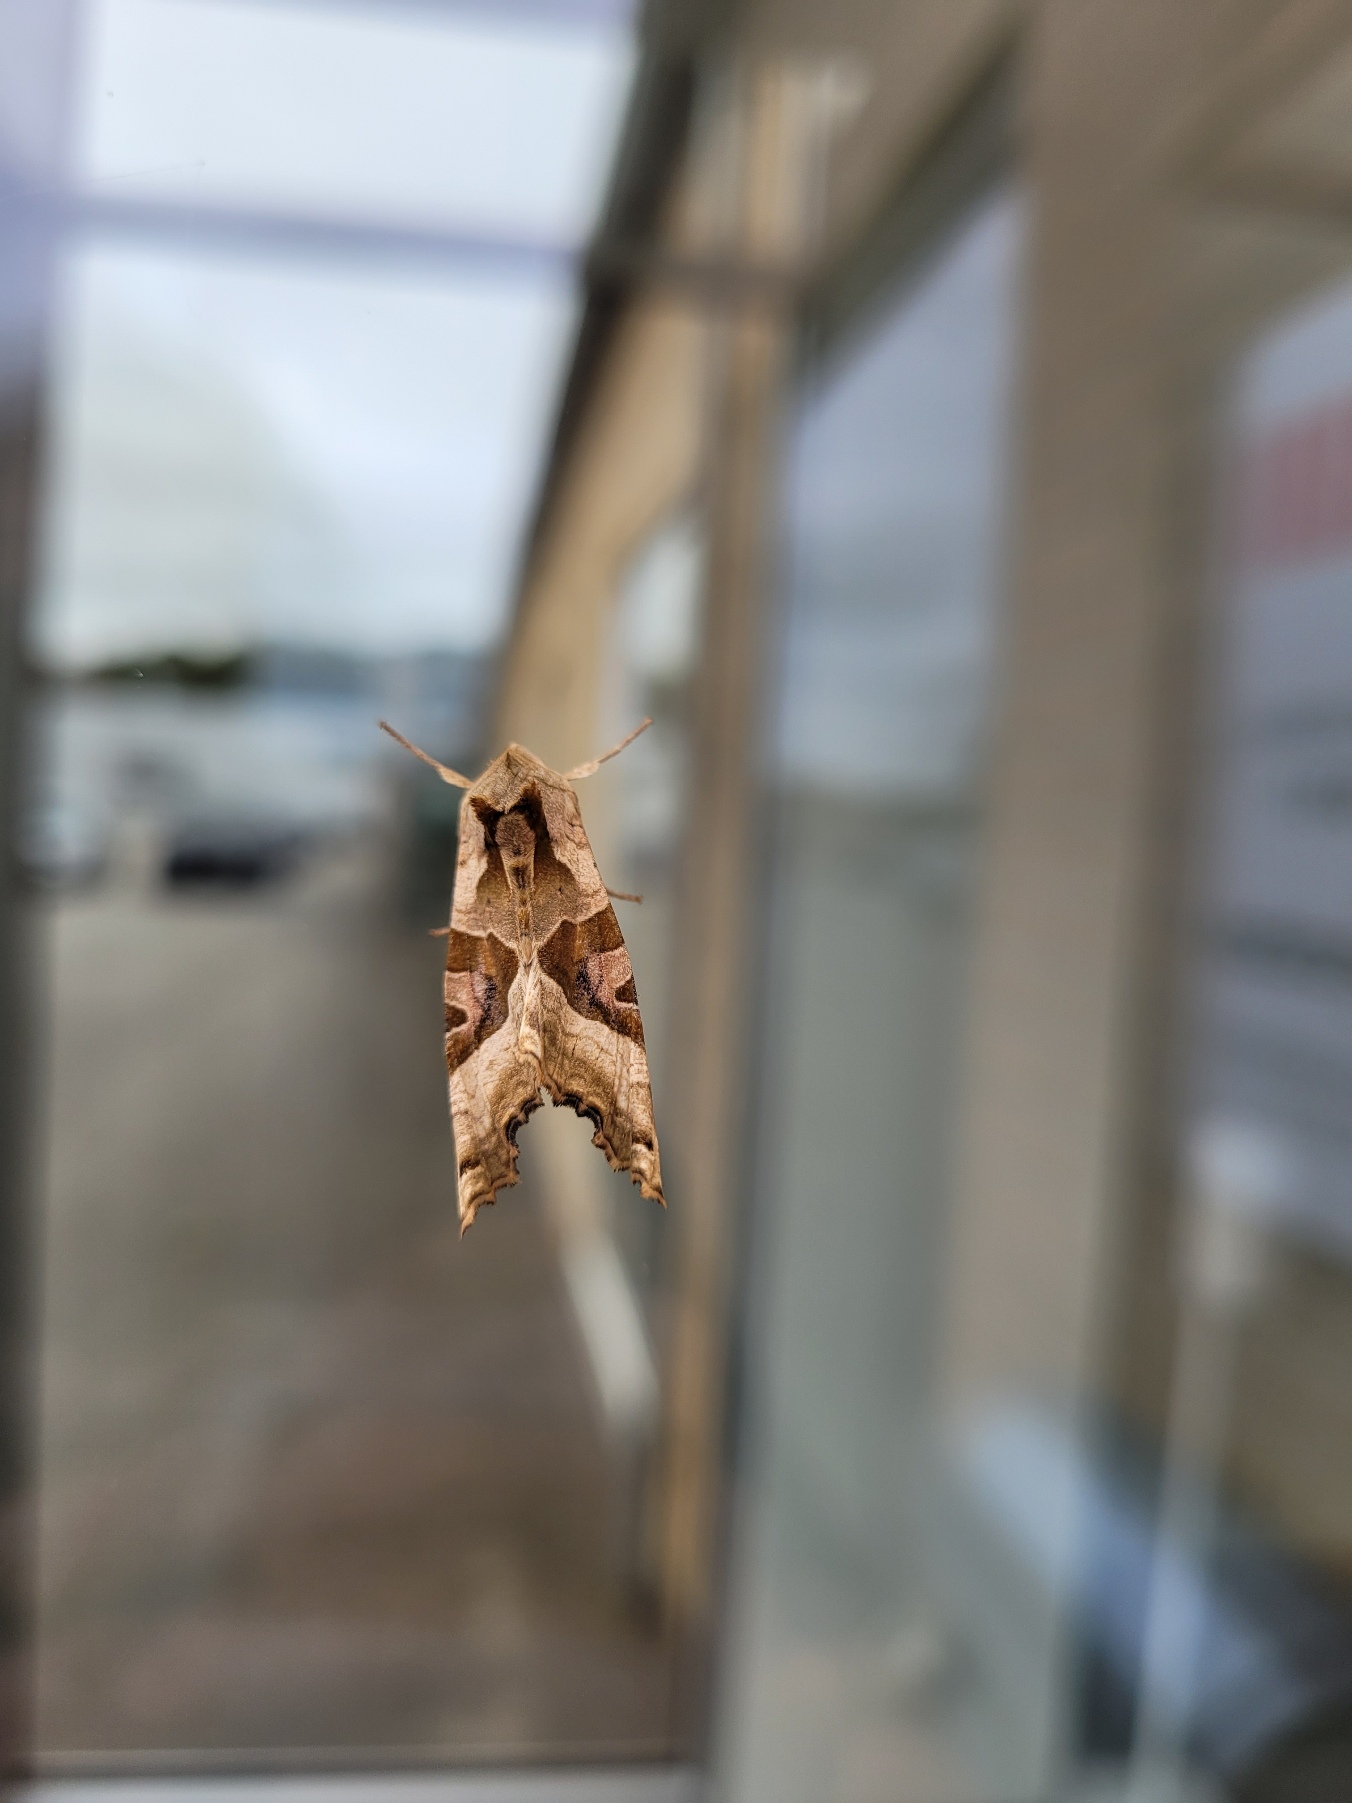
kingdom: Animalia
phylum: Arthropoda
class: Insecta
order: Lepidoptera
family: Noctuidae
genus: Phlogophora
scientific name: Phlogophora meticulosa
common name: Agatugle
